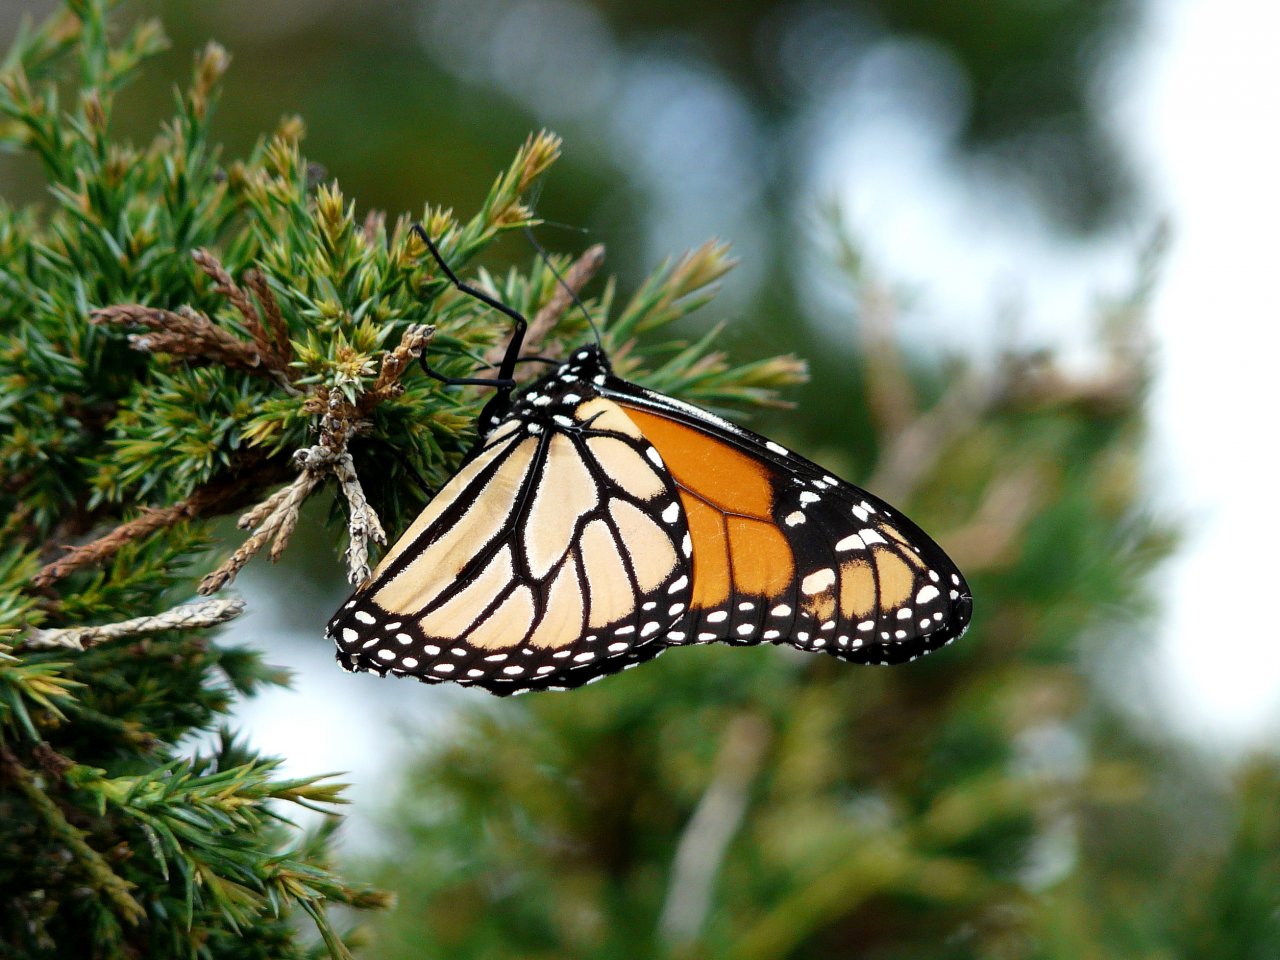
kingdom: Animalia
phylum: Arthropoda
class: Insecta
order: Lepidoptera
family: Nymphalidae
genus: Danaus
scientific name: Danaus plexippus
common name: Monarch
